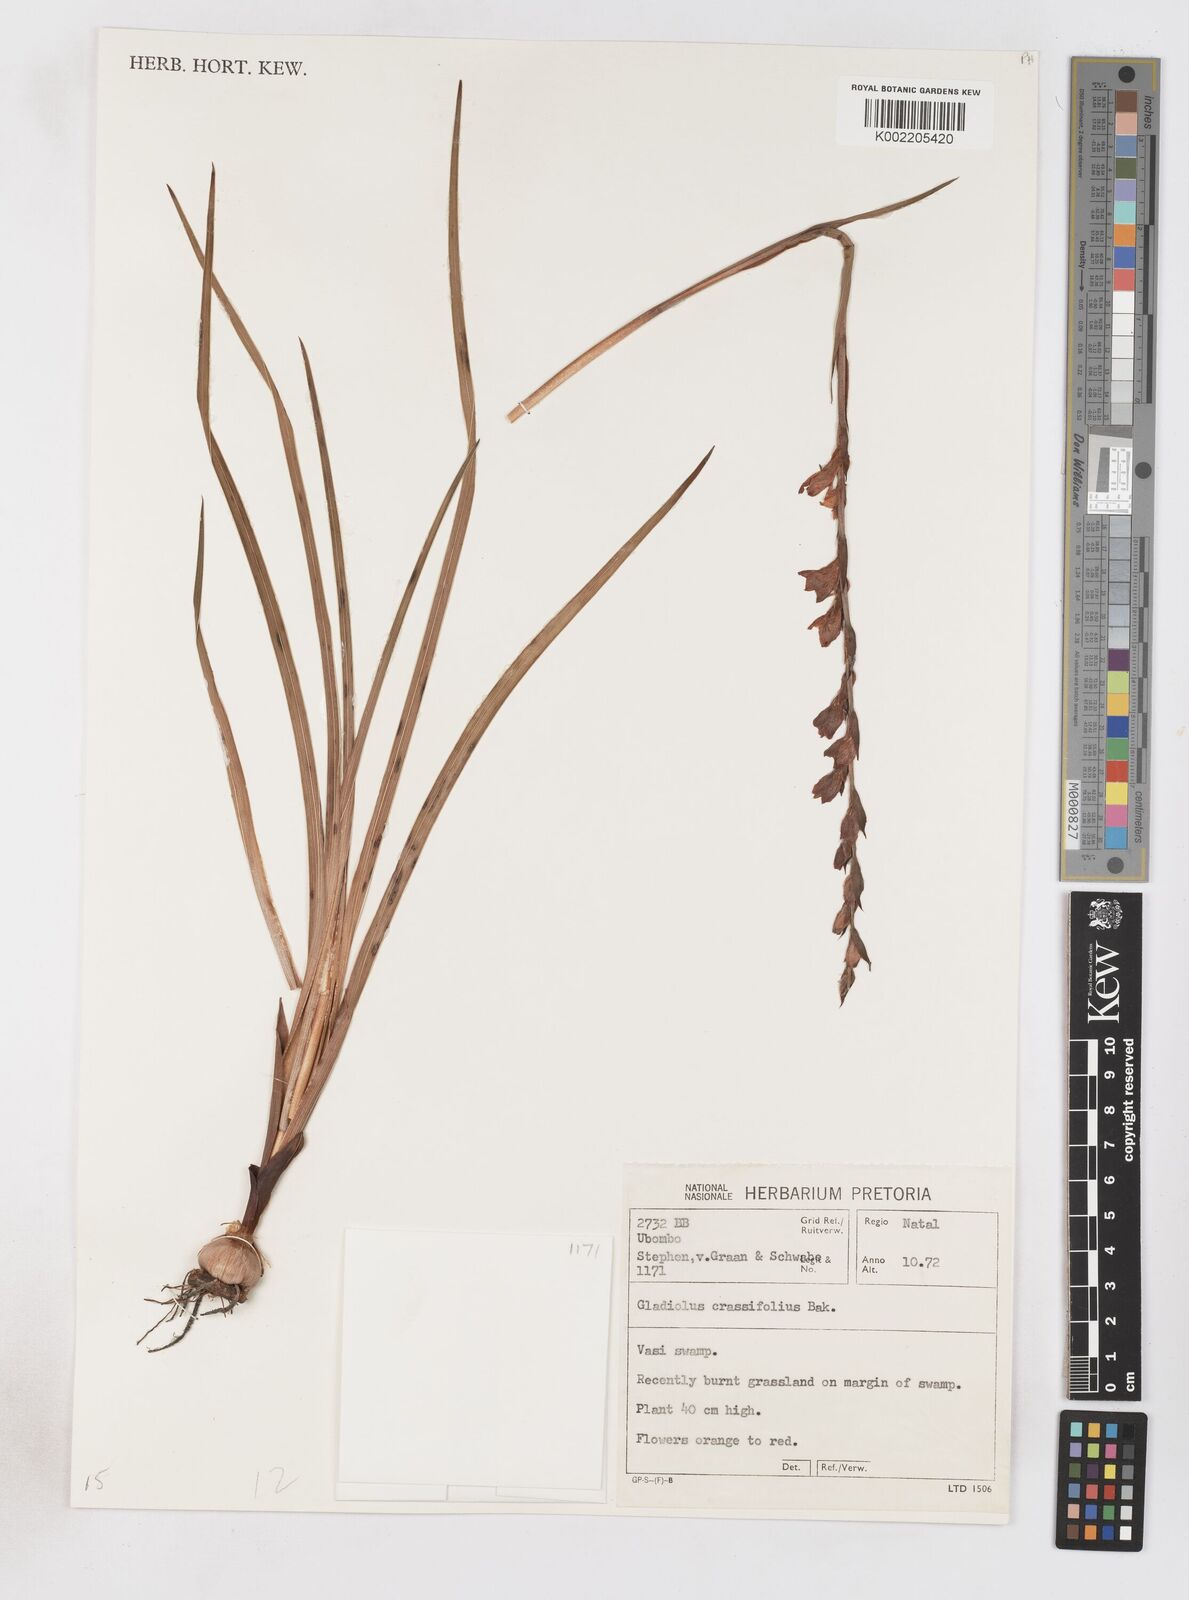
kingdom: Plantae
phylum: Tracheophyta
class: Liliopsida
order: Asparagales
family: Iridaceae
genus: Gladiolus
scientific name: Gladiolus densiflorus
